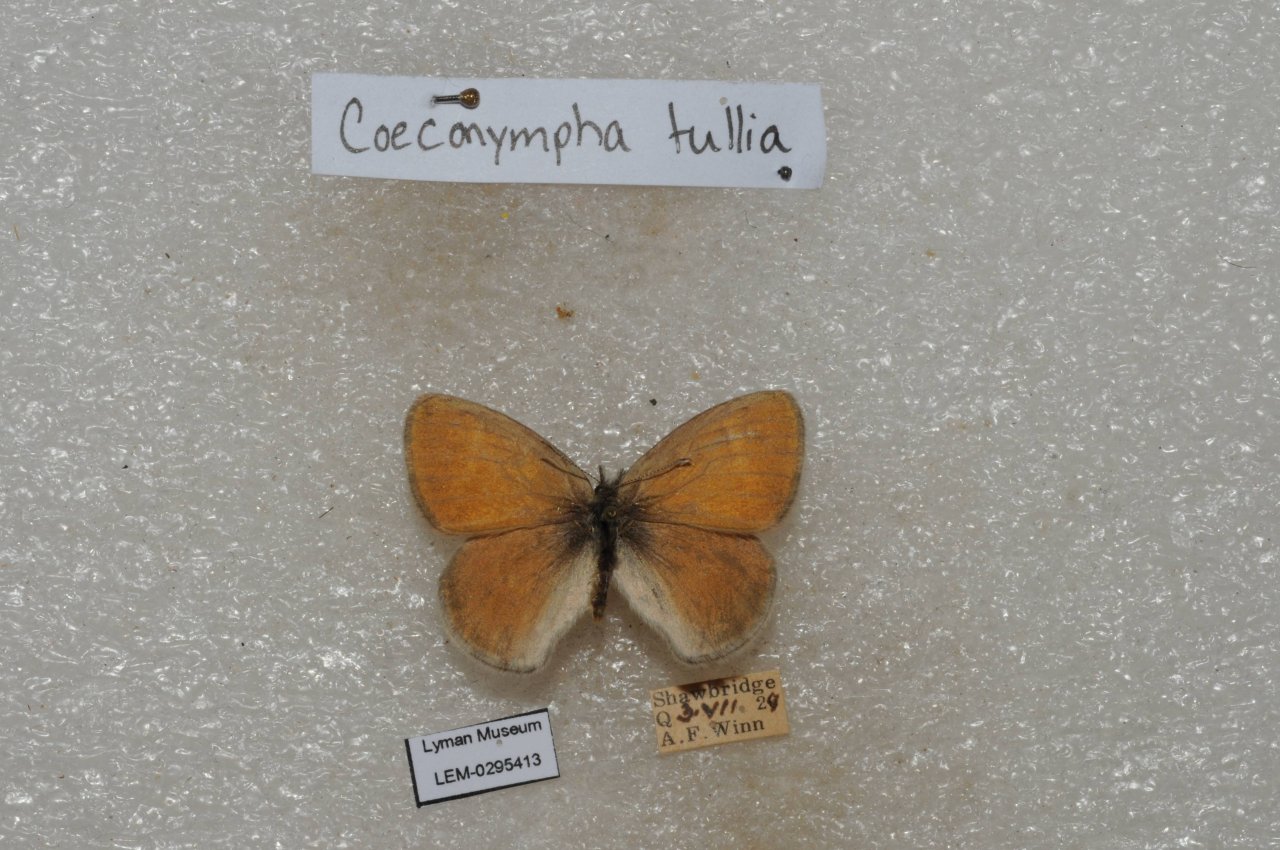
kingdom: Animalia
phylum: Arthropoda
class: Insecta
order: Lepidoptera
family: Nymphalidae
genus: Coenonympha
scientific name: Coenonympha tullia
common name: Large Heath
